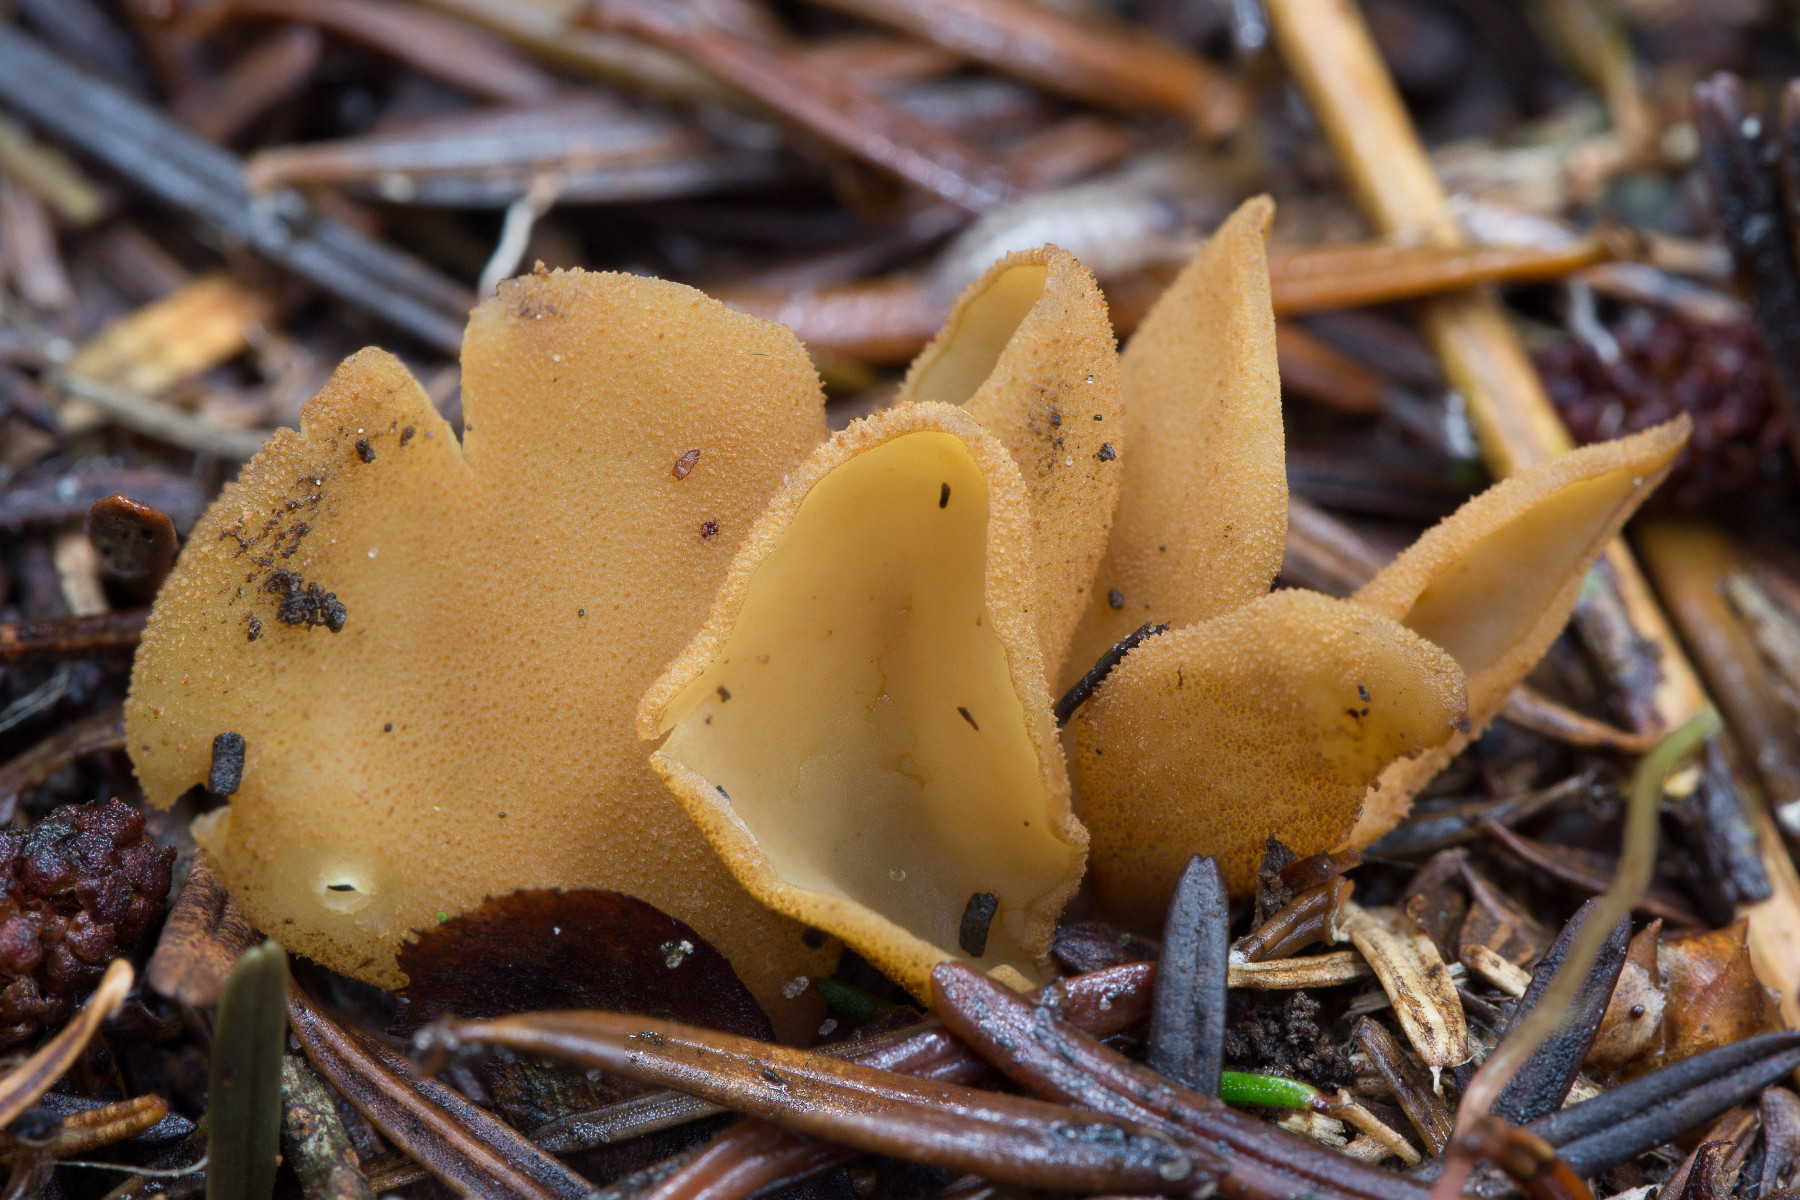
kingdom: Fungi
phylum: Ascomycota
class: Pezizomycetes
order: Pezizales
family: Otideaceae
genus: Otidea
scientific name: Otidea nannfeldtii
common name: jolle-ørebæger
